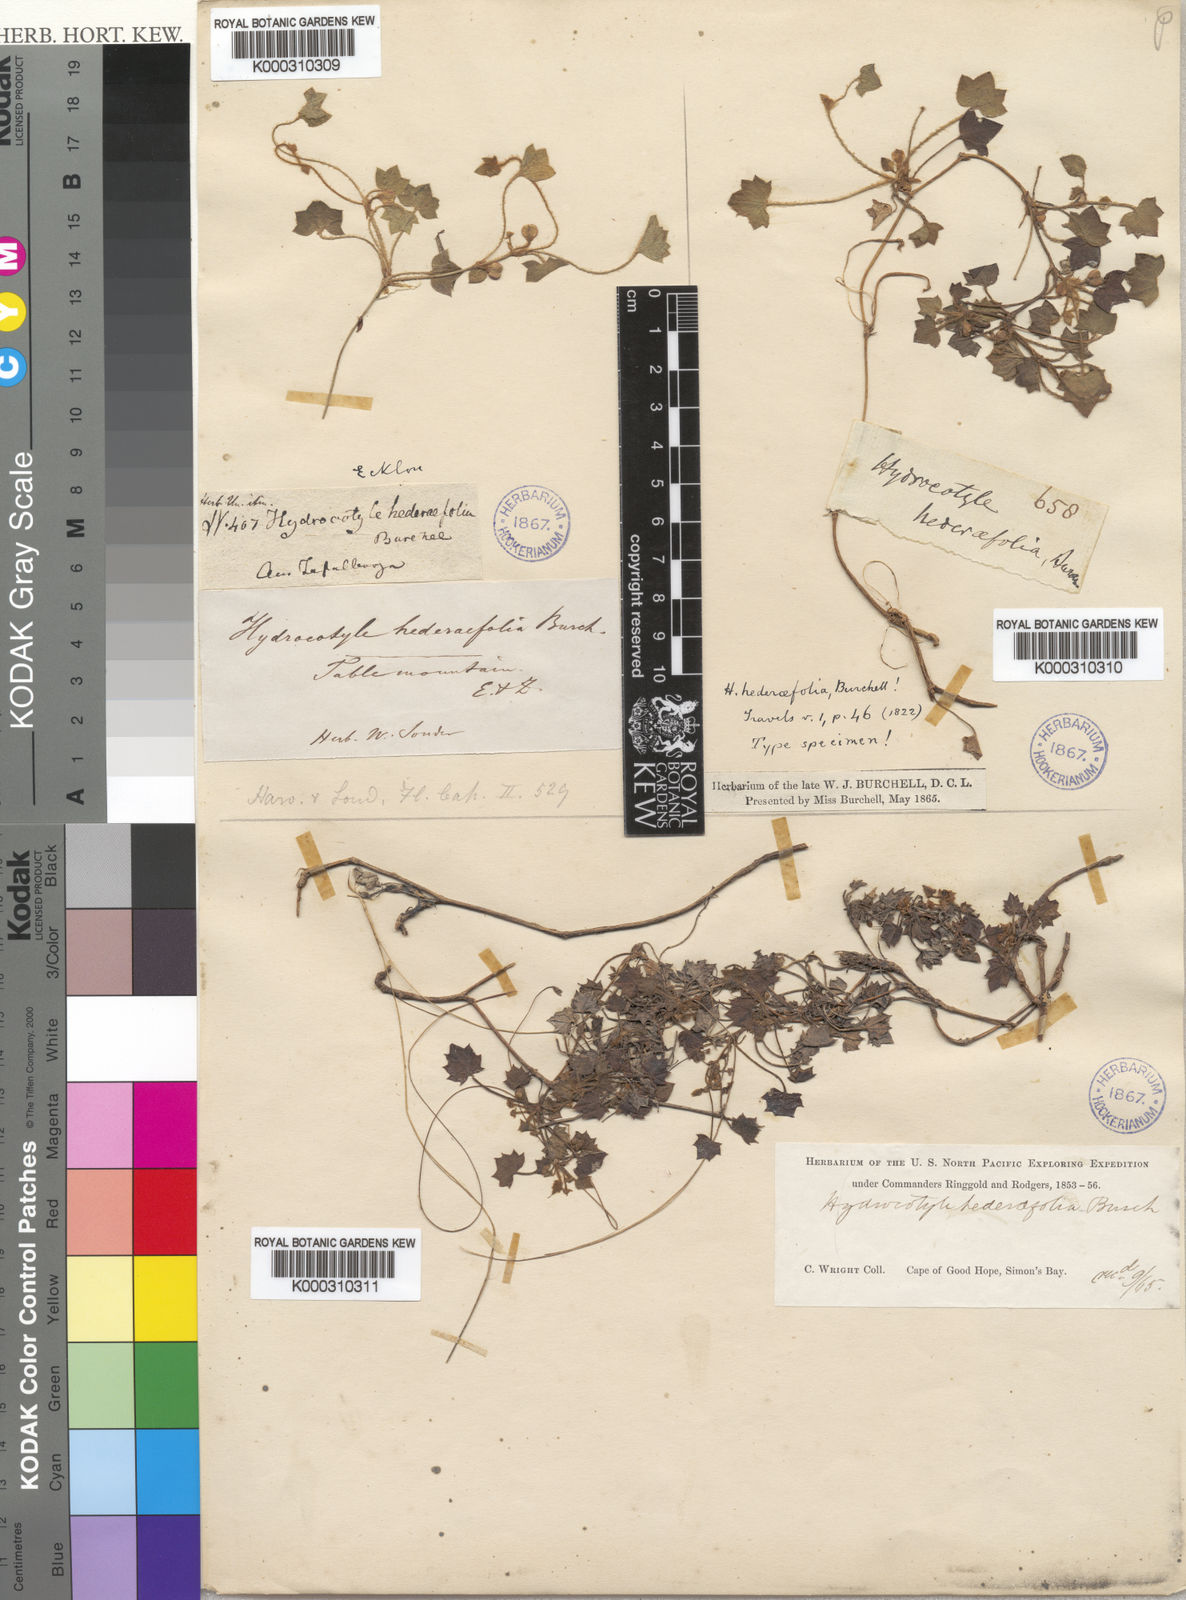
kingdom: Plantae
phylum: Tracheophyta
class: Magnoliopsida
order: Apiales
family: Apiaceae
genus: Centella
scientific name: Centella macroda
